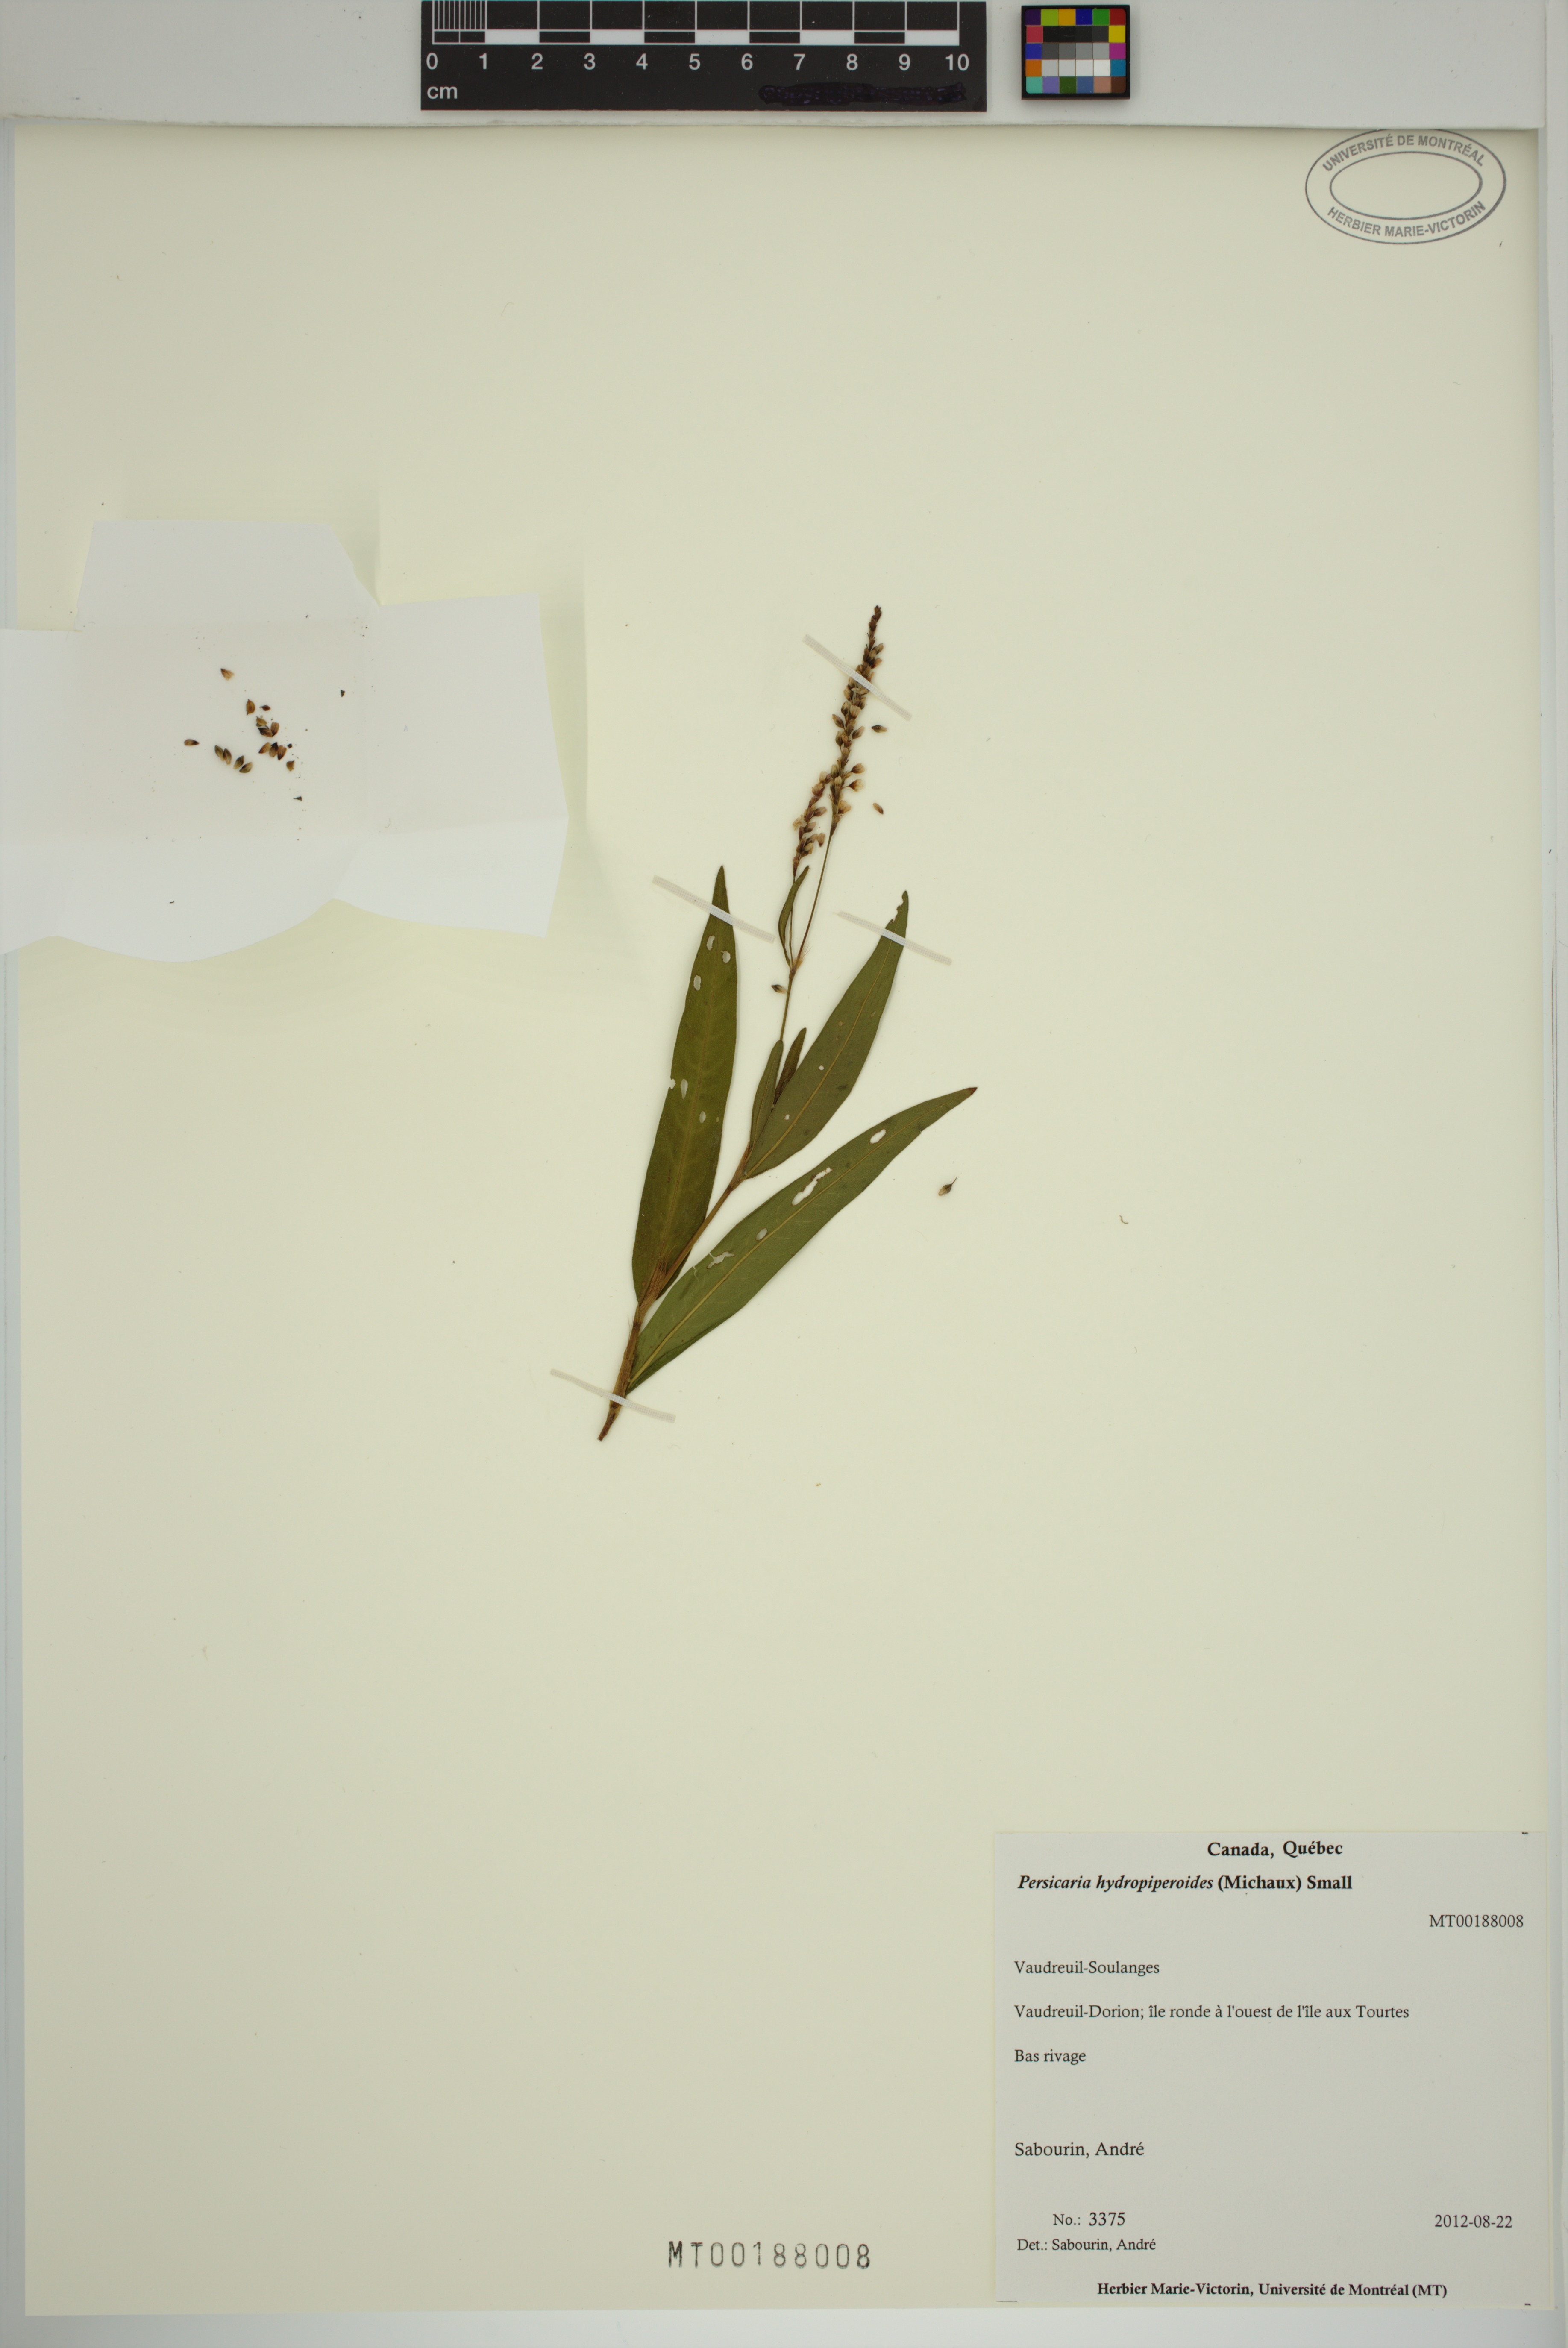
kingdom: Plantae
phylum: Tracheophyta
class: Magnoliopsida
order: Caryophyllales
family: Polygonaceae
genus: Persicaria
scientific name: Persicaria hydropiperoides
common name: Swamp smartweed
